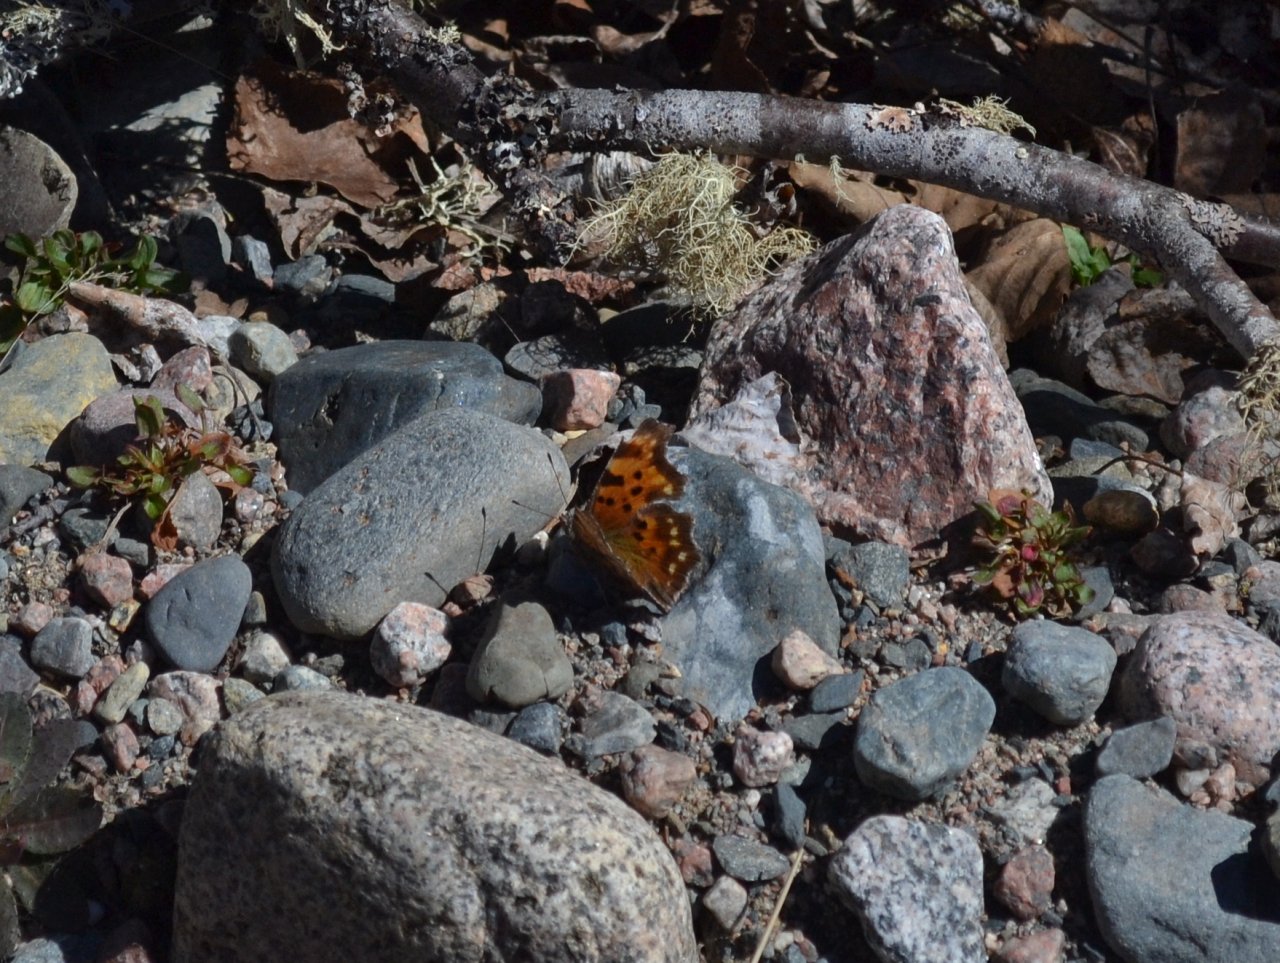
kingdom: Animalia
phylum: Arthropoda
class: Insecta
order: Lepidoptera
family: Nymphalidae
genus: Polygonia
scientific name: Polygonia faunus
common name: Green Comma
